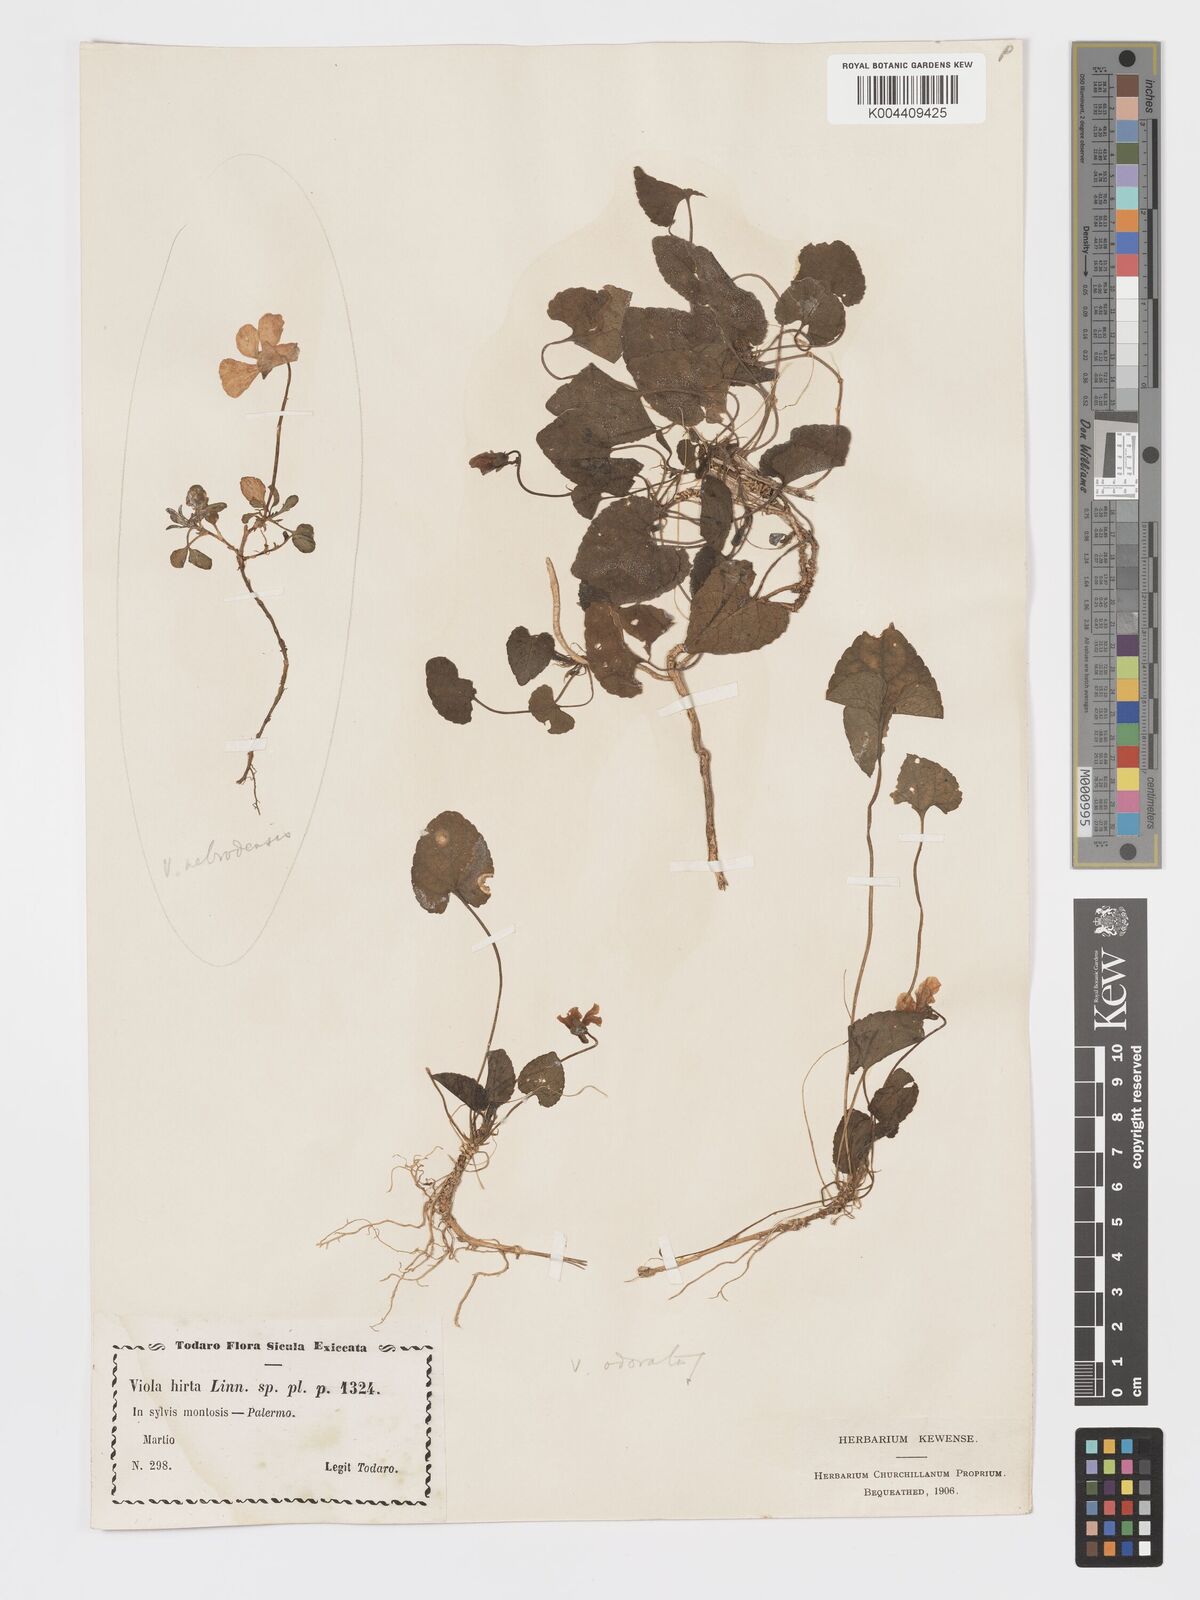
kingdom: Plantae
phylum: Tracheophyta
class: Magnoliopsida
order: Malpighiales
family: Violaceae
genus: Viola
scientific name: Viola alba
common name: White violet
